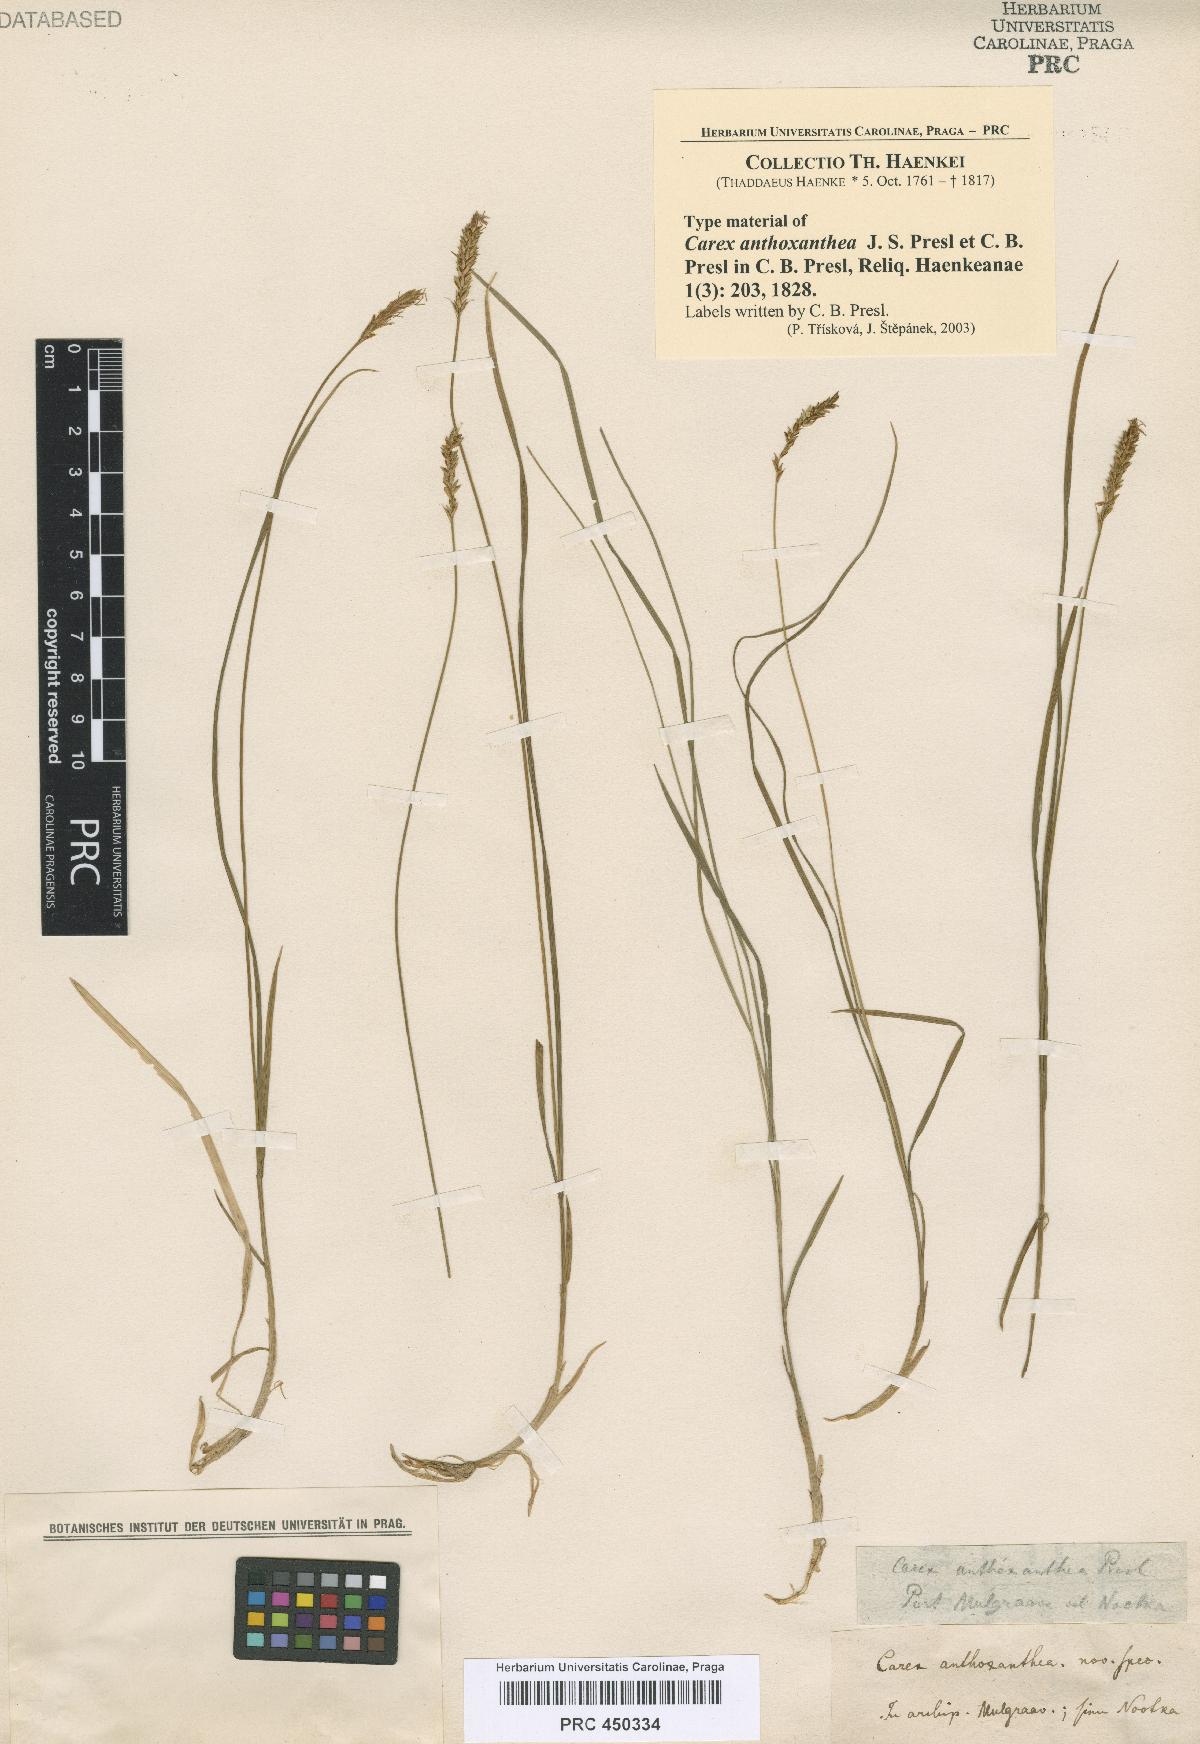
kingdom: Plantae
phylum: Tracheophyta
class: Liliopsida
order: Poales
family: Cyperaceae
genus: Carex
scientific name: Carex anthoxanthea
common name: Grassy-slope arctic sedge
